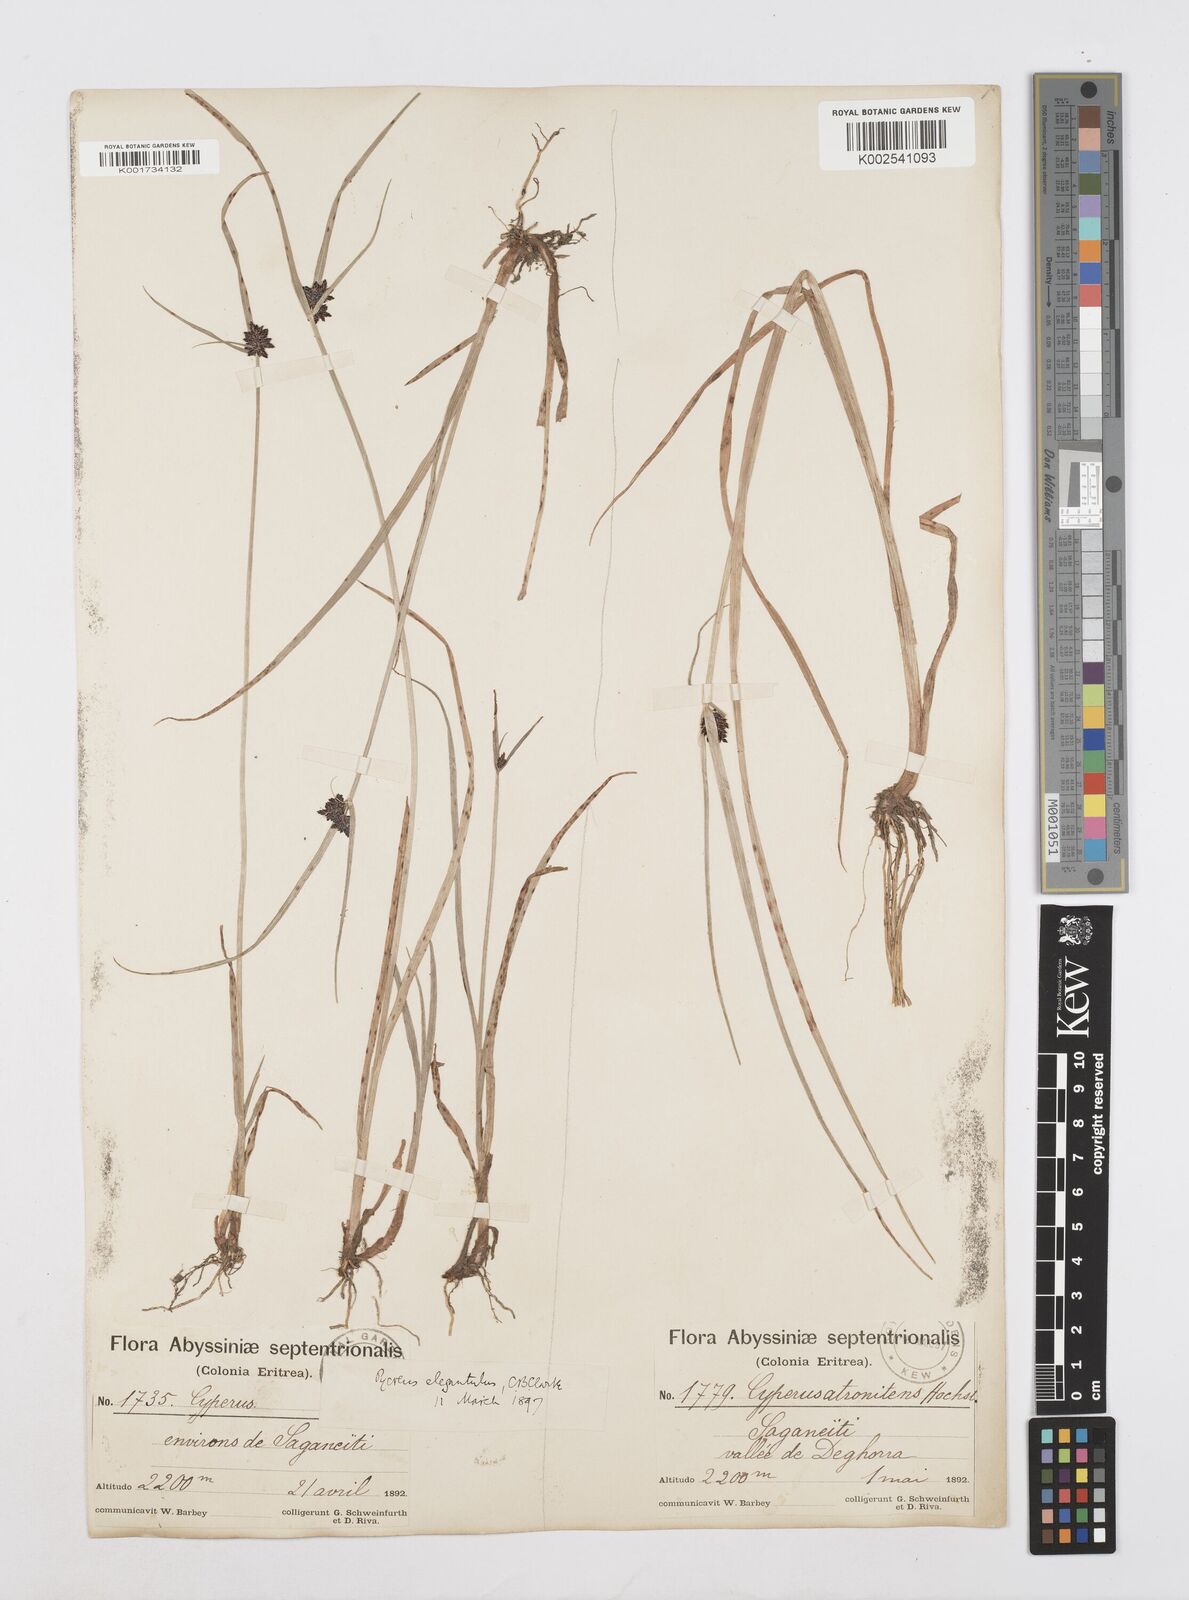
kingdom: Plantae
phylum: Tracheophyta
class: Liliopsida
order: Poales
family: Cyperaceae
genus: Cyperus
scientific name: Cyperus elegantulus
